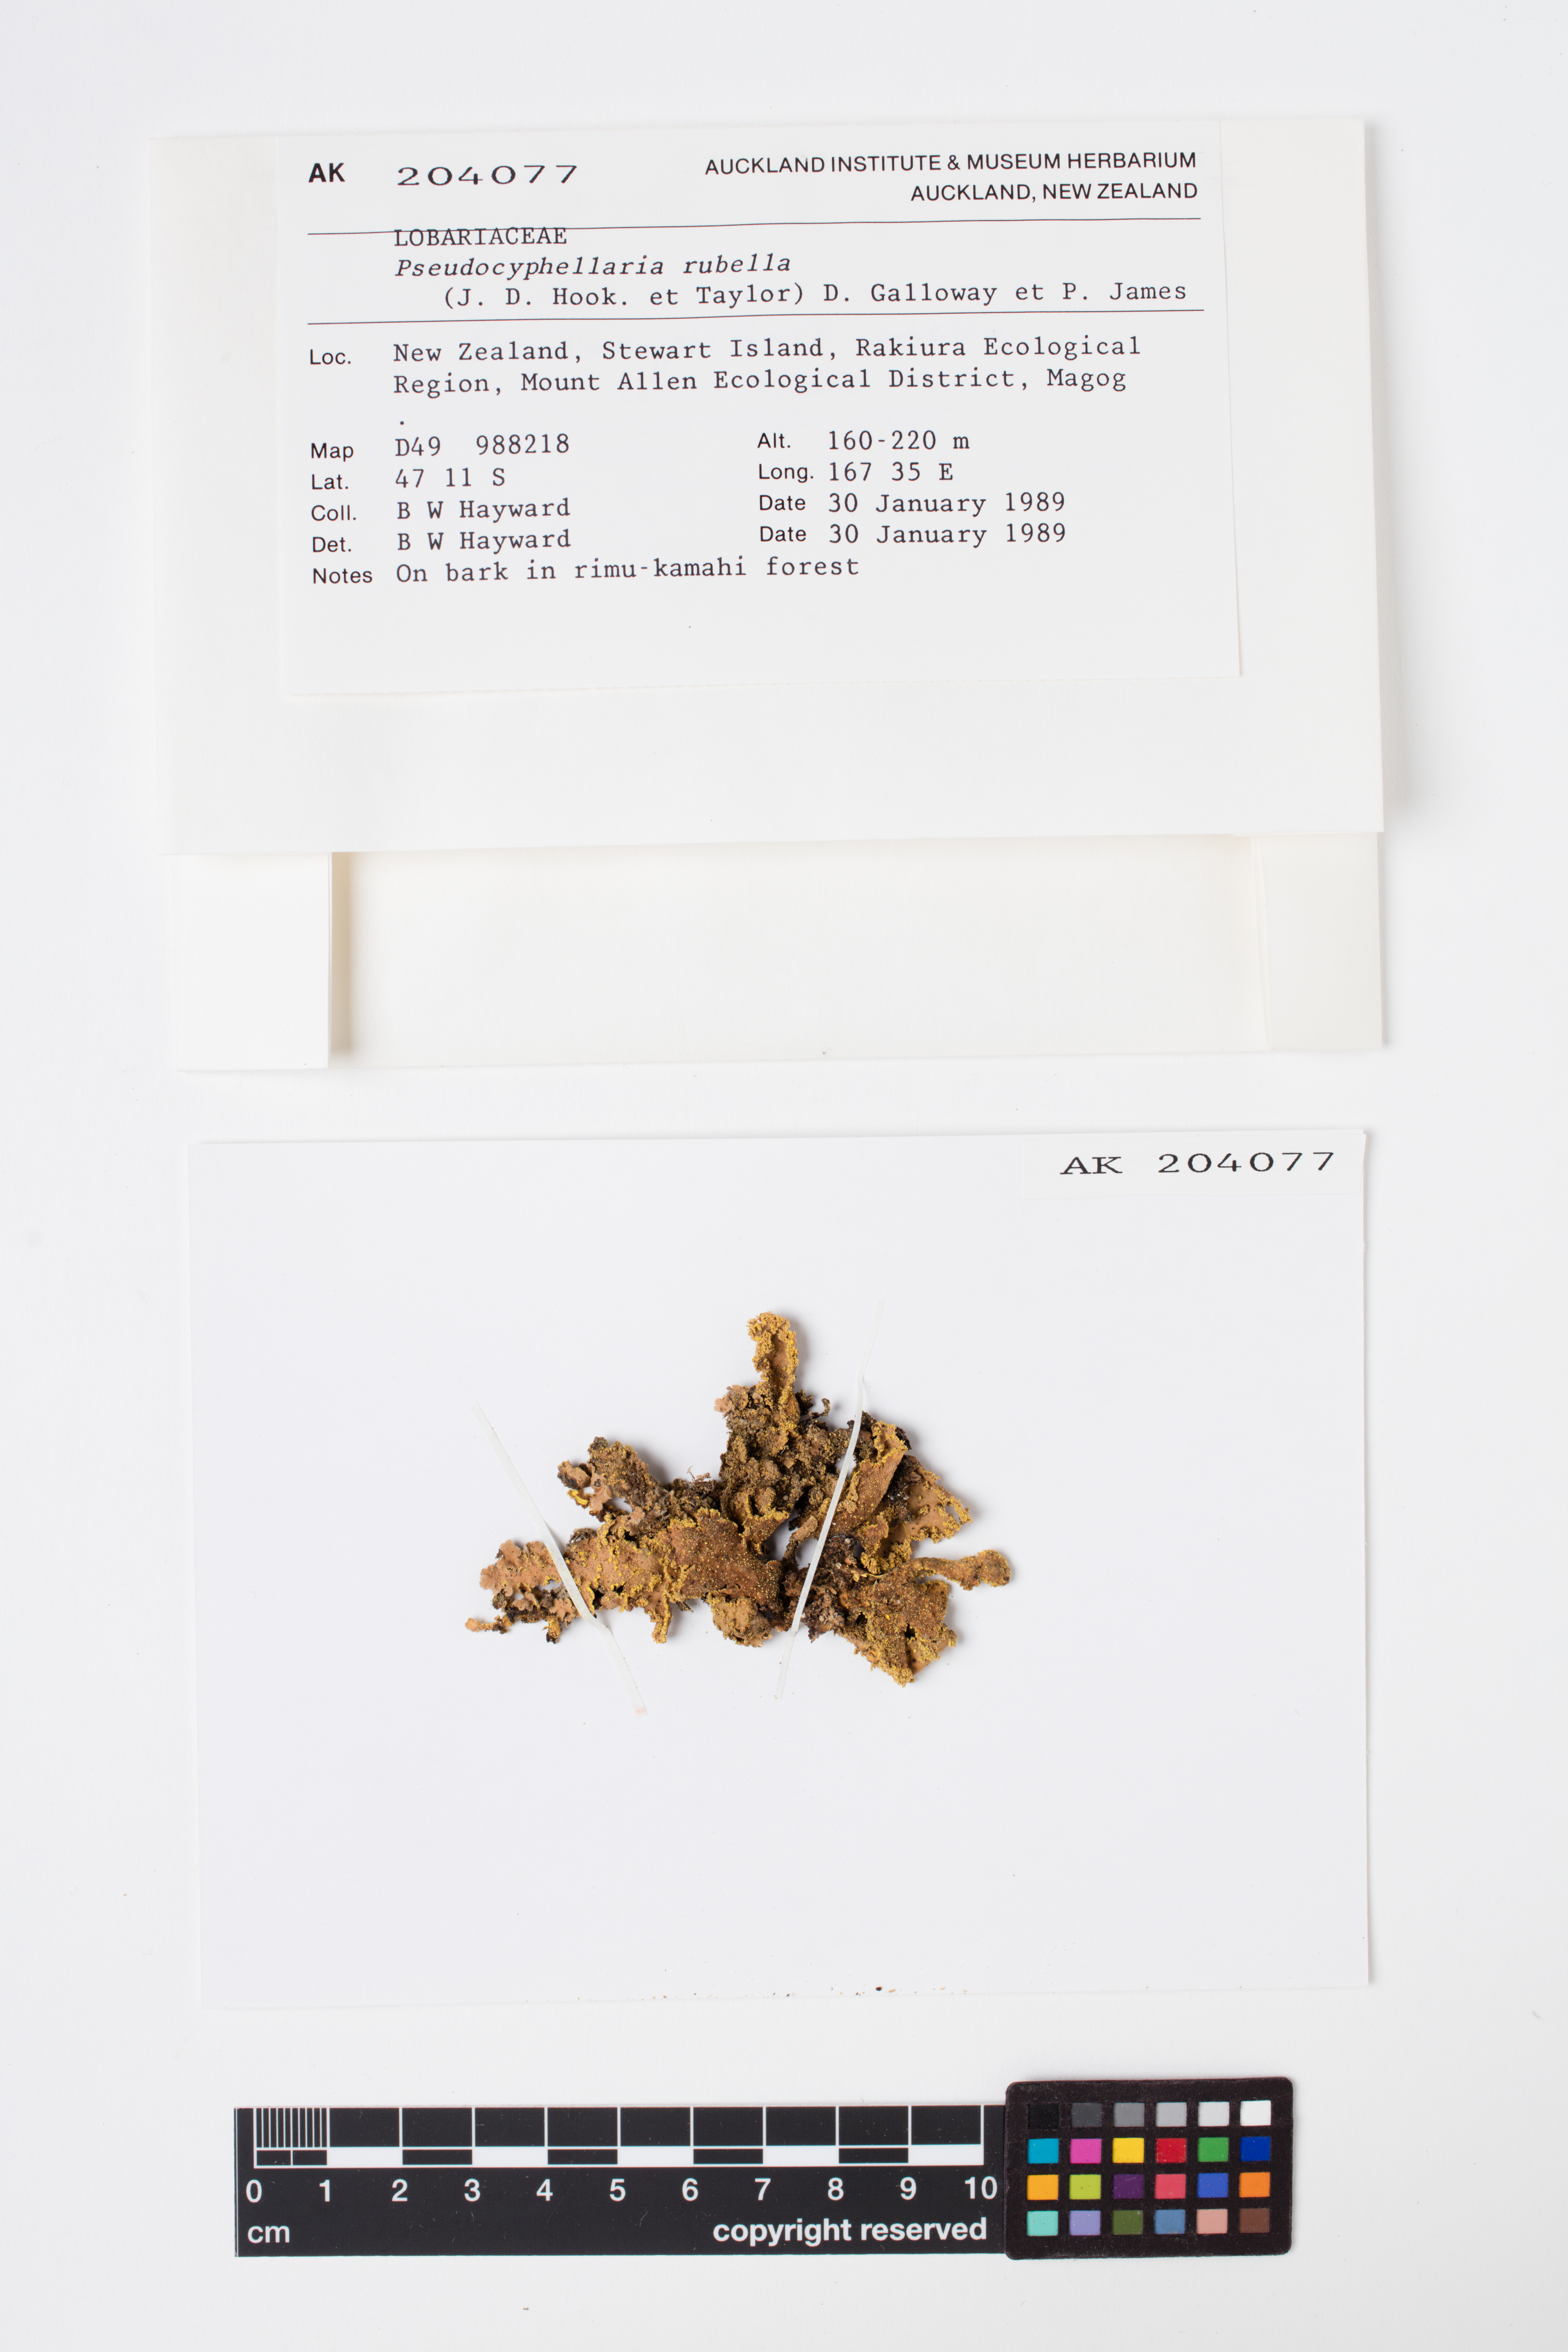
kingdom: Fungi
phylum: Ascomycota
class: Lecanoromycetes
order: Peltigerales
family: Lobariaceae
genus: Pseudocyphellaria
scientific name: Pseudocyphellaria rubella
